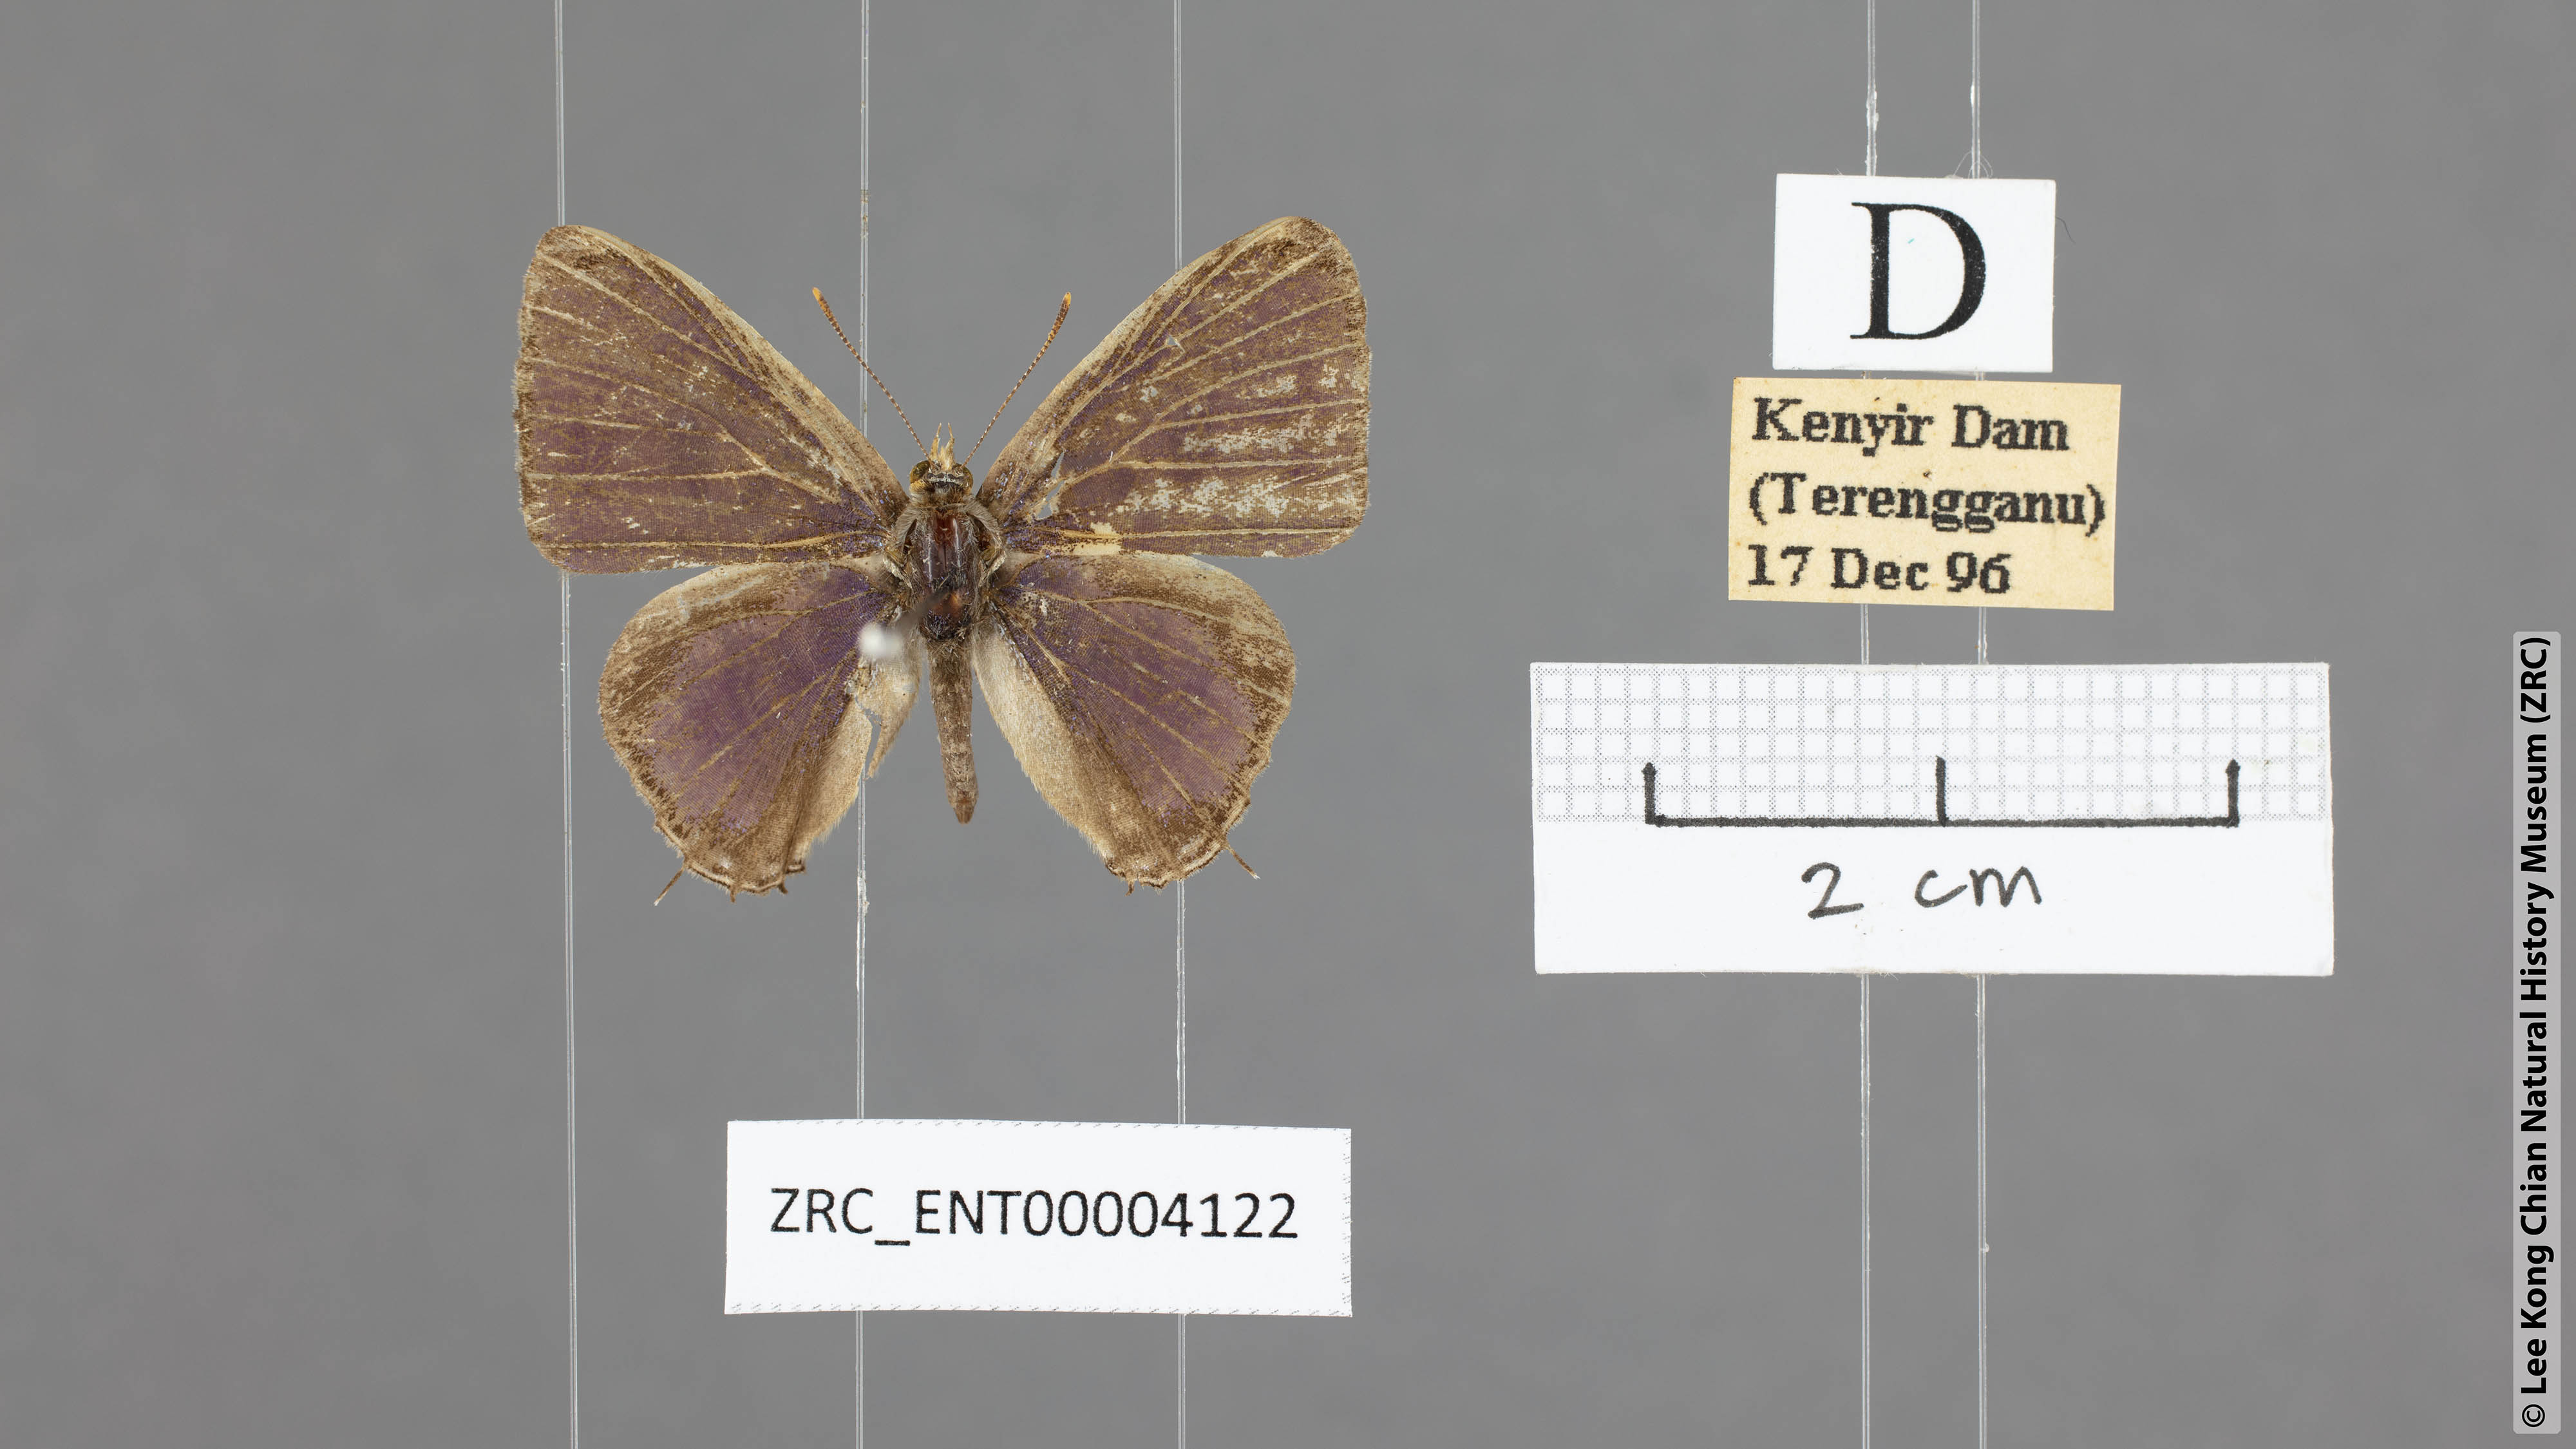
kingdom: Animalia
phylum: Arthropoda
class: Insecta
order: Lepidoptera
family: Lycaenidae
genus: Catapaecilma
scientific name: Catapaecilma major
